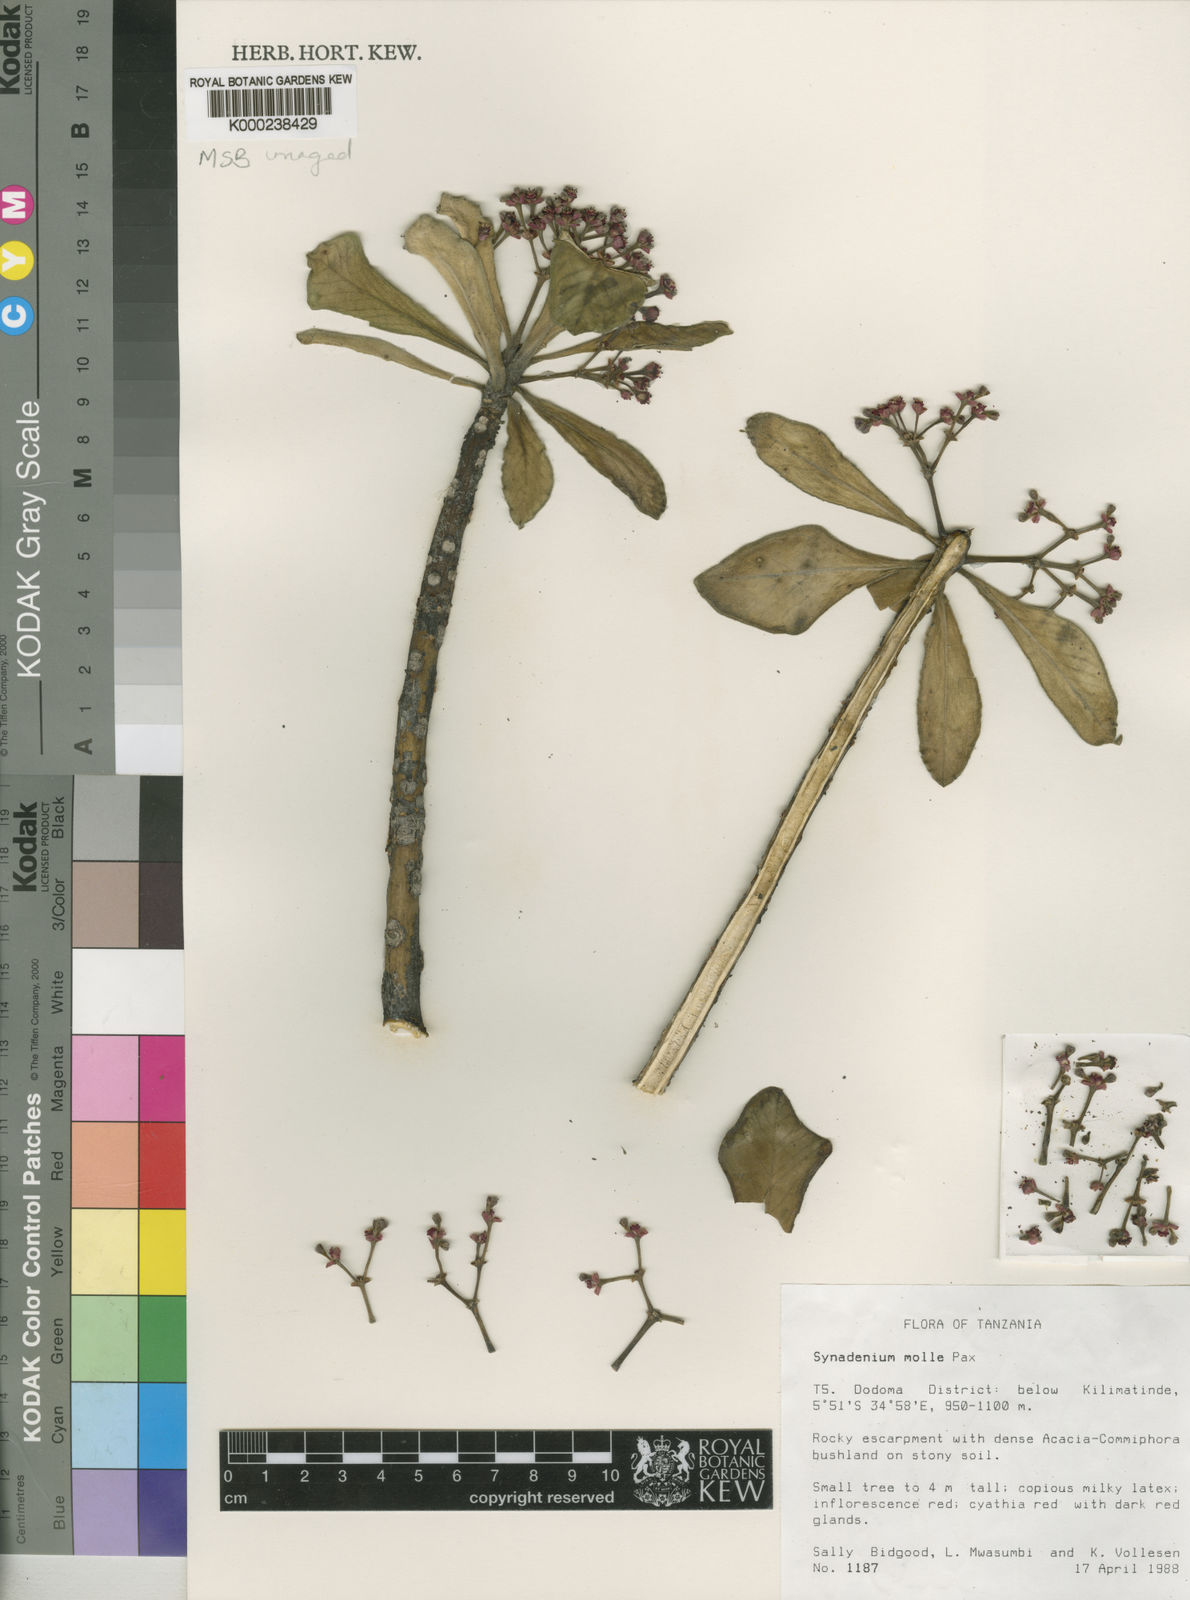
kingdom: Plantae
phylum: Tracheophyta
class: Magnoliopsida
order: Malpighiales
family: Euphorbiaceae
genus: Euphorbia
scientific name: Euphorbia pseudomollis
